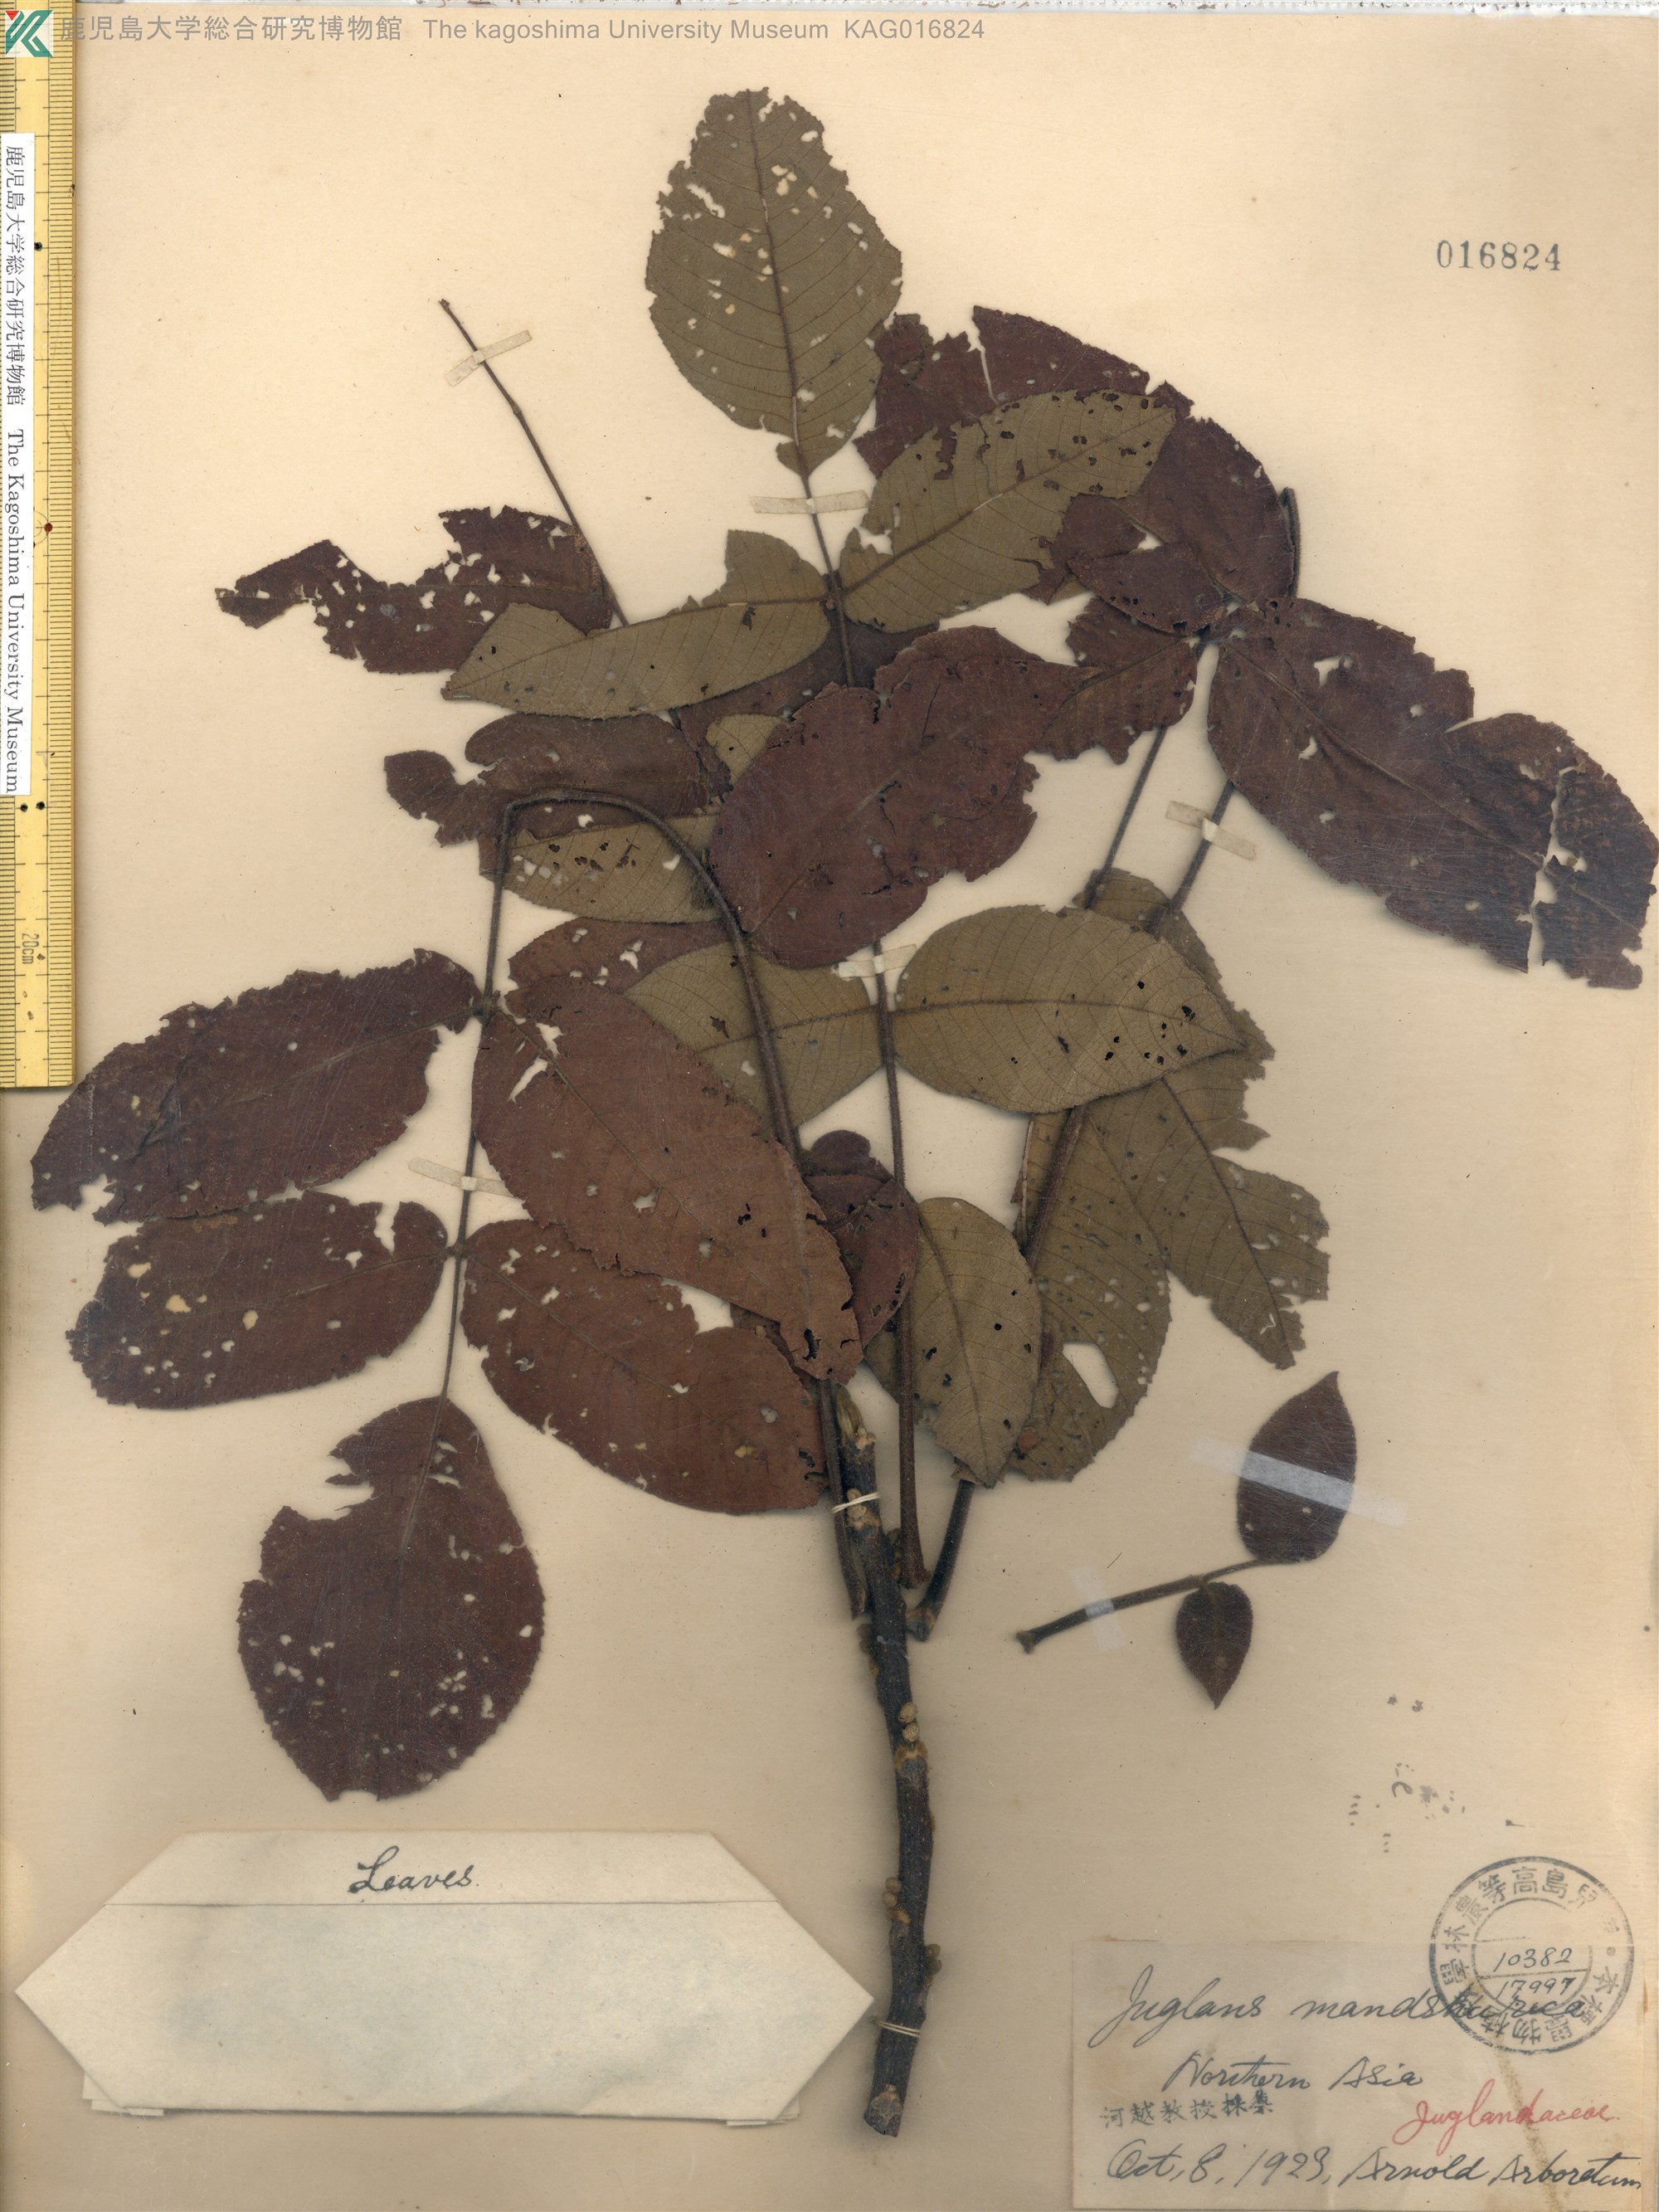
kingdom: Plantae
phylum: Tracheophyta
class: Magnoliopsida
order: Fagales
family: Juglandaceae
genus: Juglans
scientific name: Juglans ailantifolia
